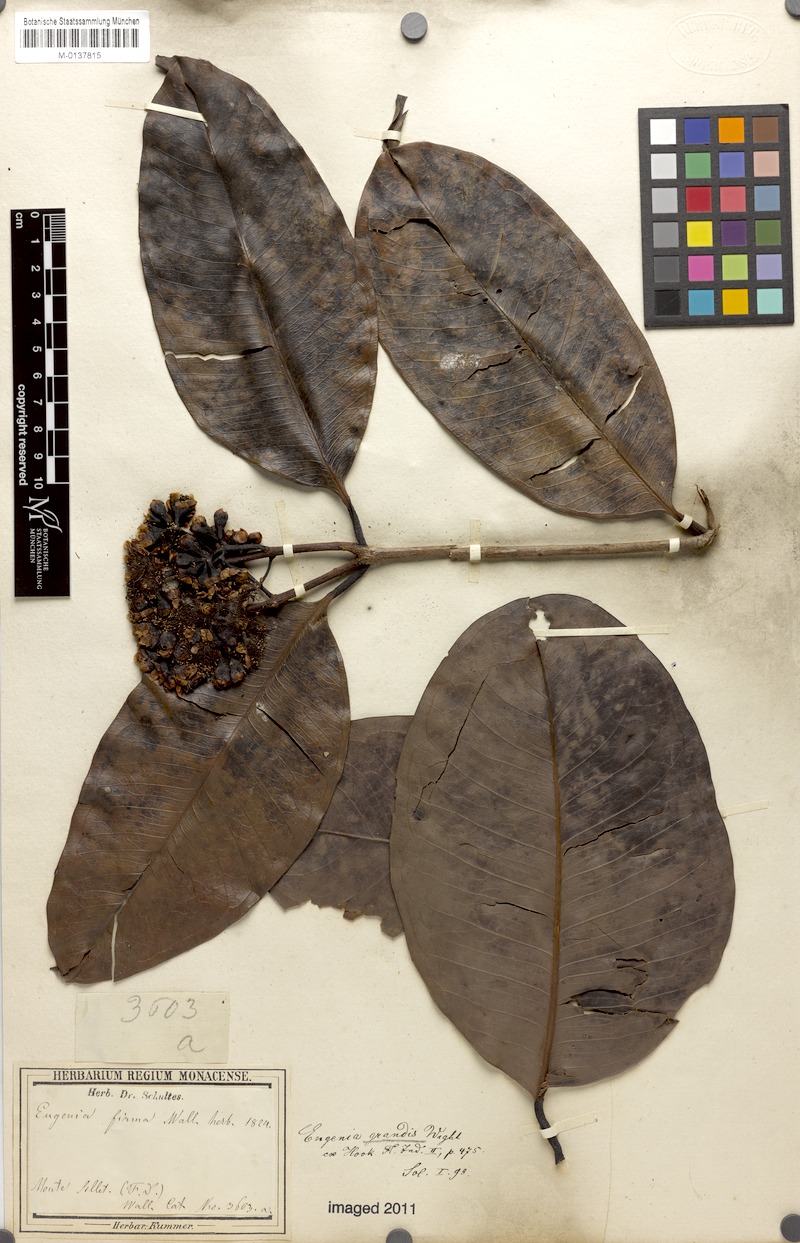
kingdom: Plantae
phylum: Tracheophyta
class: Magnoliopsida
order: Myrtales
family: Myrtaceae
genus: Syzygium
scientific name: Syzygium grande
